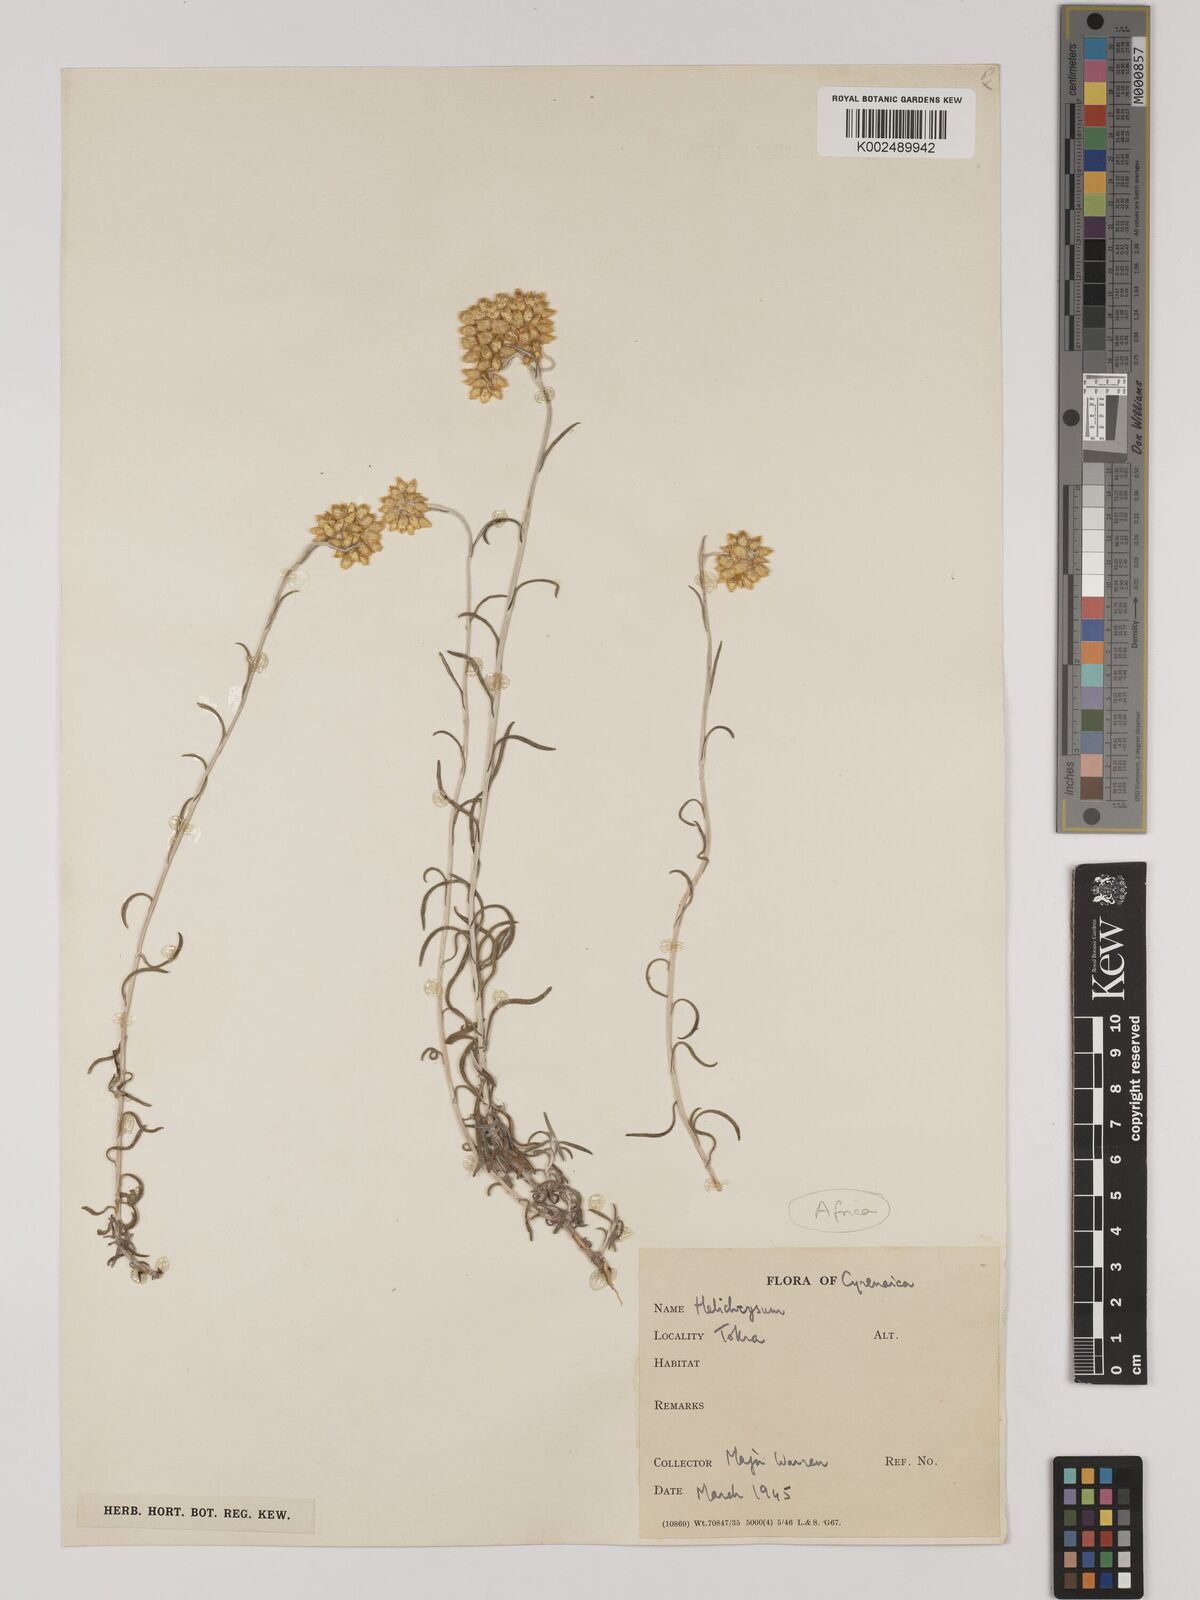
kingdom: Plantae
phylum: Tracheophyta
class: Magnoliopsida
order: Asterales
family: Asteraceae
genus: Helichrysum
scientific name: Helichrysum stoechas
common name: Goldilocks
